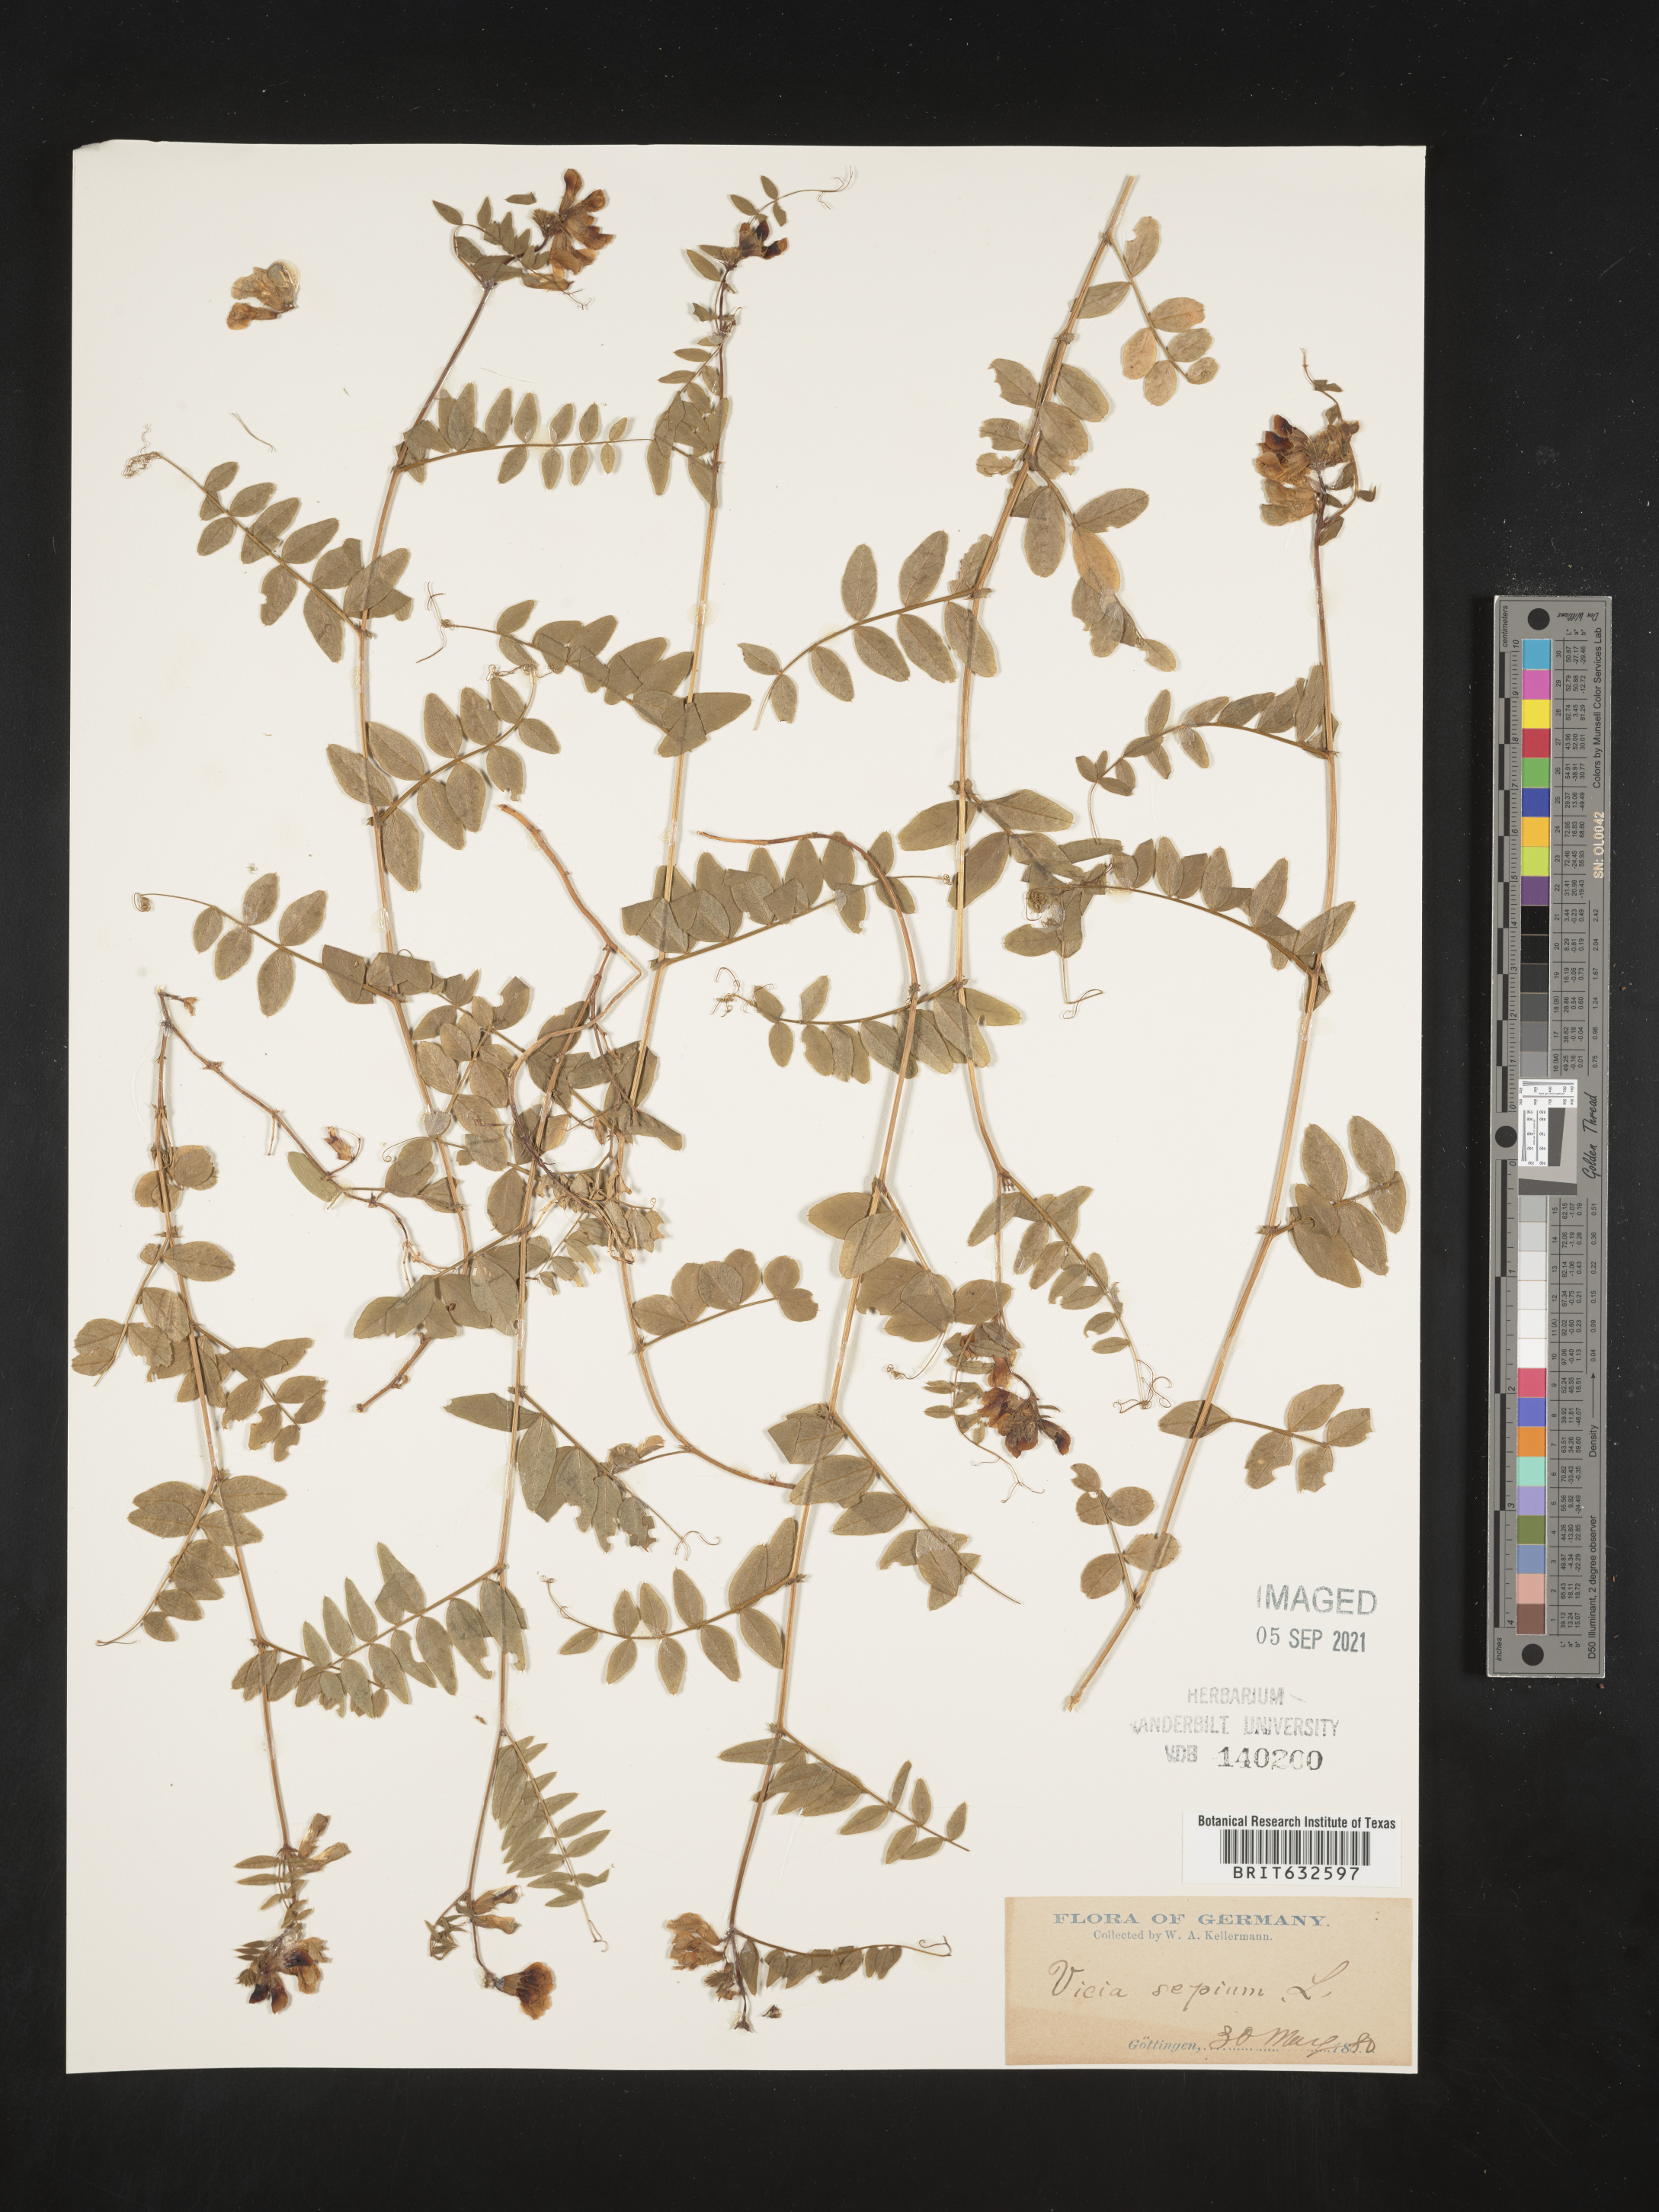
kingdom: Plantae
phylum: Tracheophyta
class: Magnoliopsida
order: Fabales
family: Fabaceae
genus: Vicia
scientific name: Vicia
